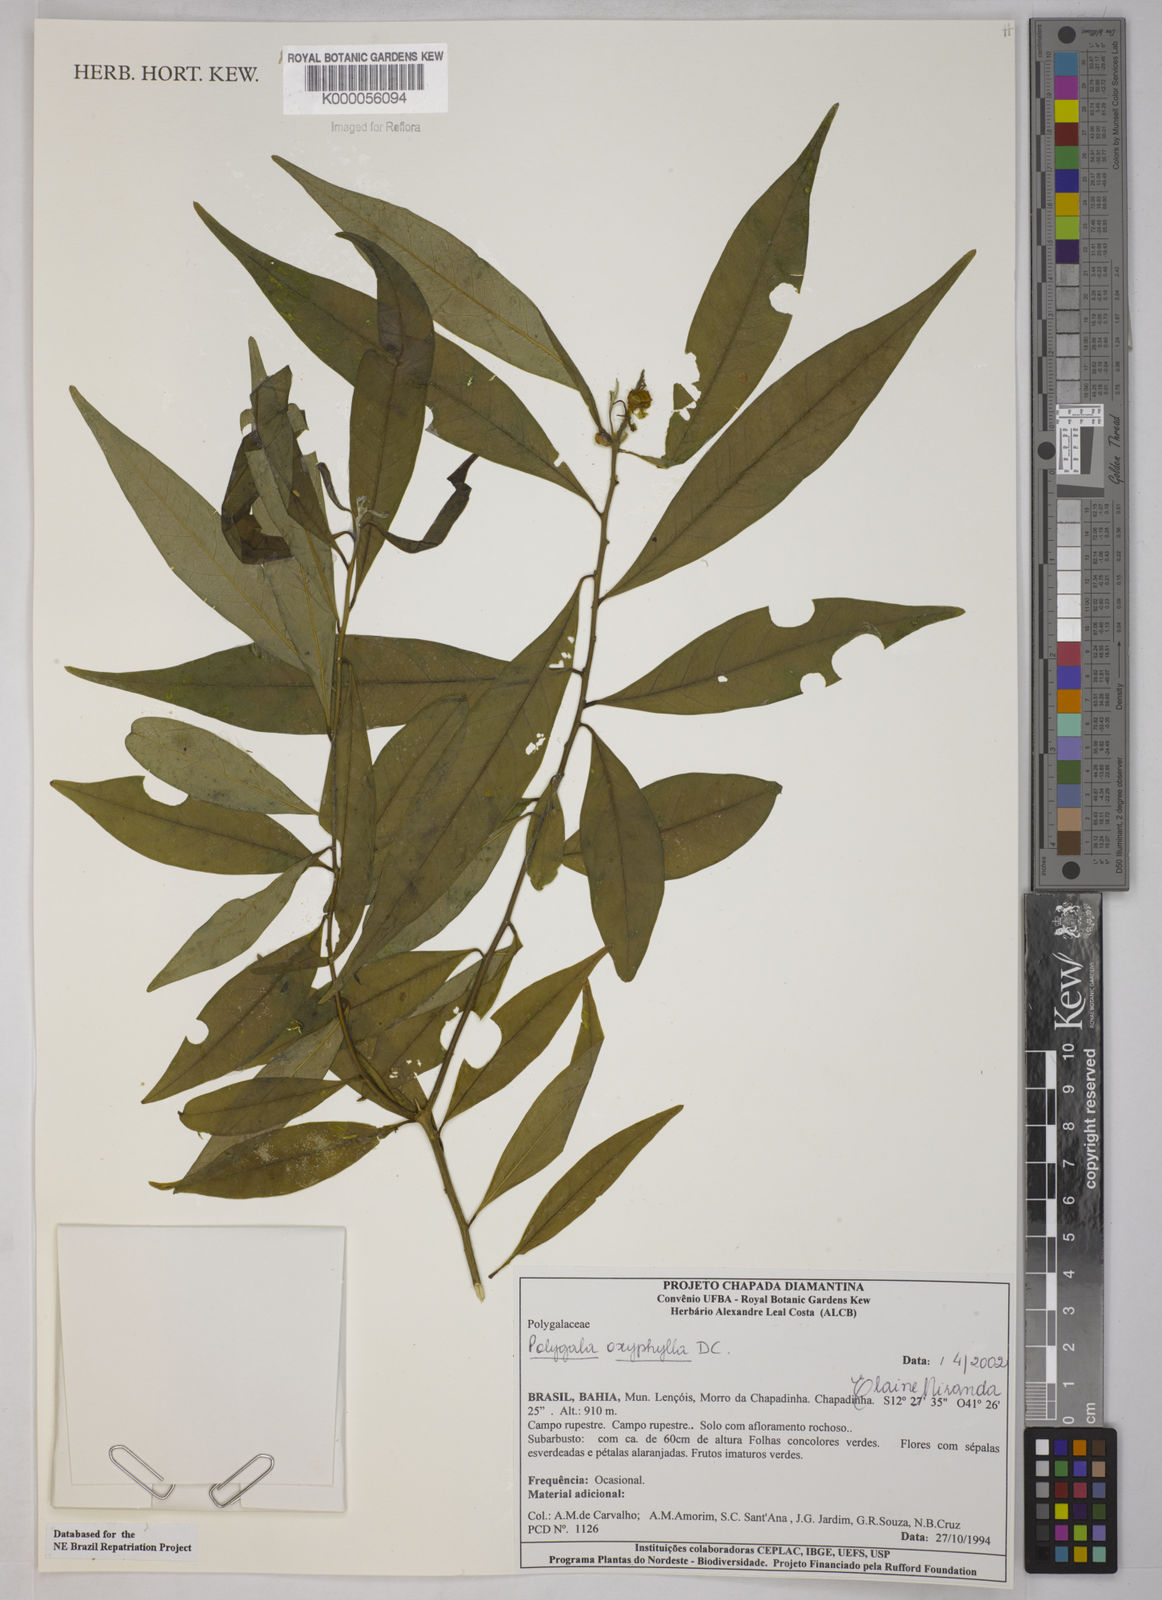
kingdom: Plantae
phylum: Tracheophyta
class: Magnoliopsida
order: Fabales
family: Polygalaceae
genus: Caamembeca
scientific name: Caamembeca oxyphylla
